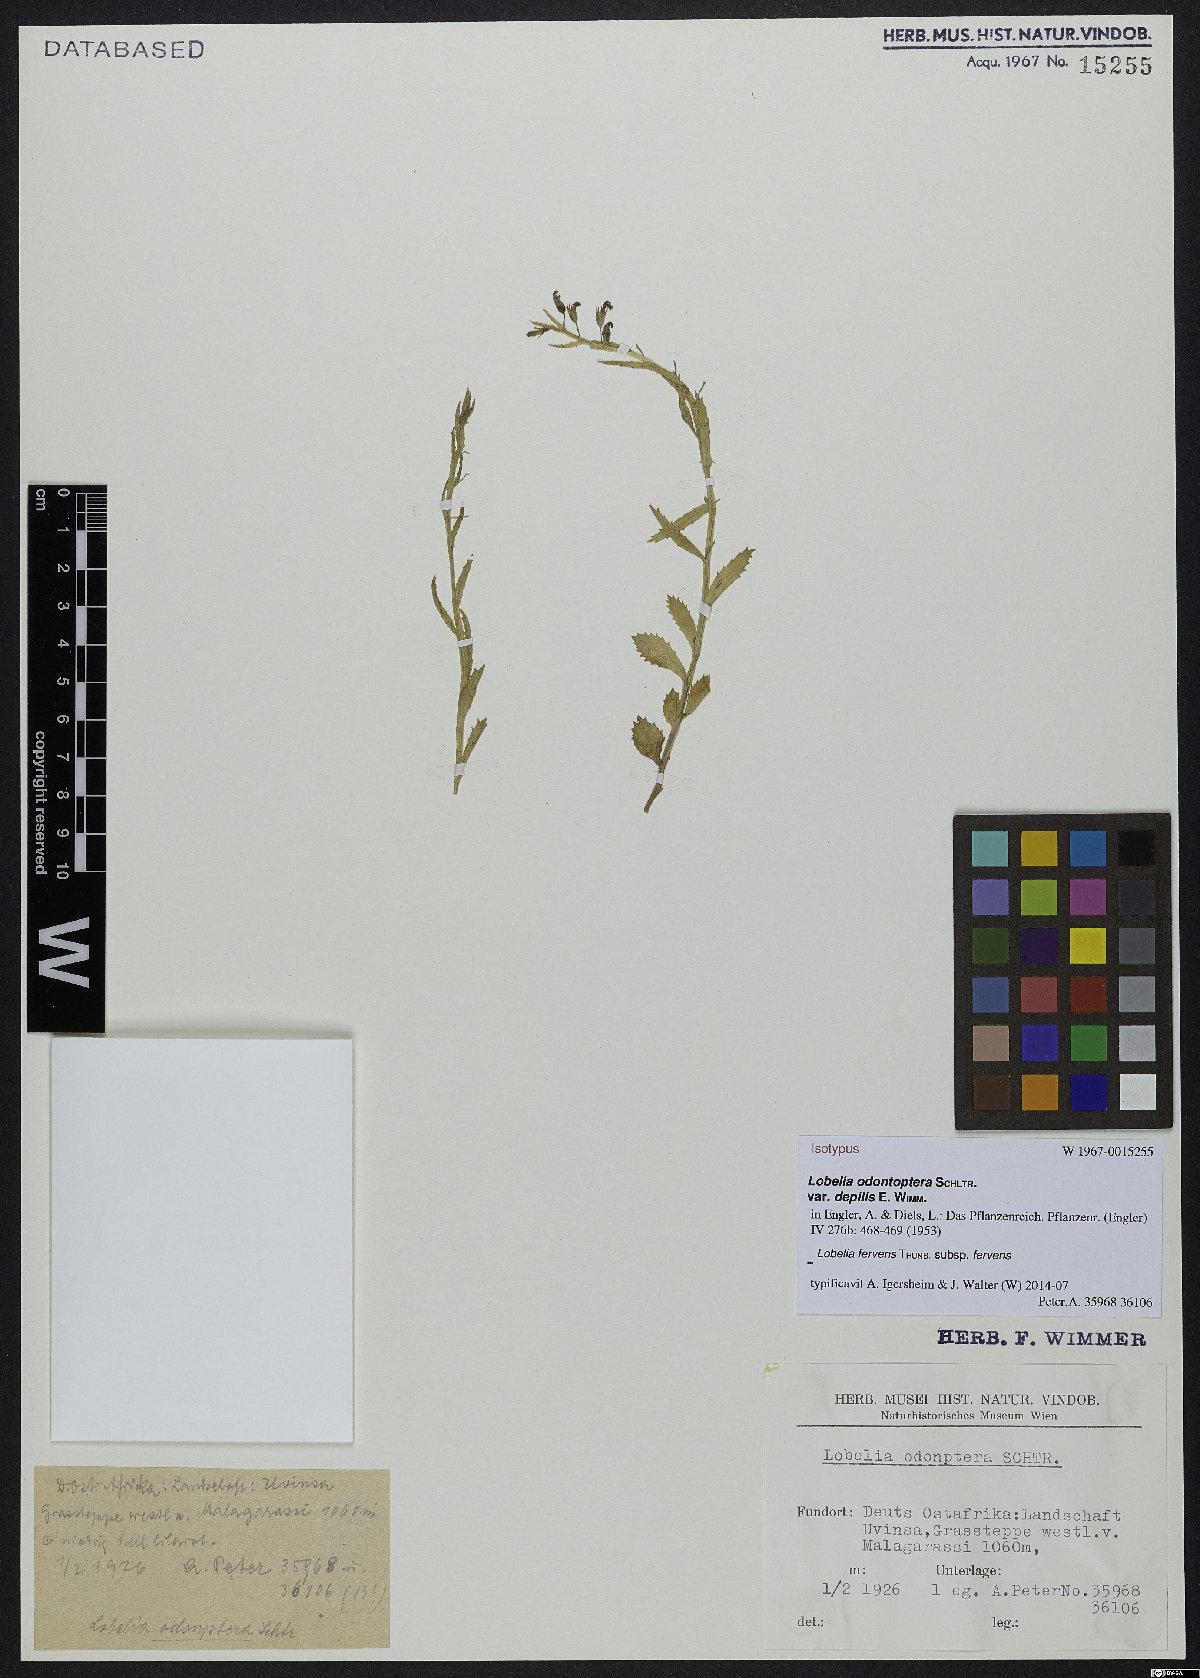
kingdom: Plantae
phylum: Tracheophyta
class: Magnoliopsida
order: Asterales
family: Campanulaceae
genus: Lobelia
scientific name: Lobelia fervens
